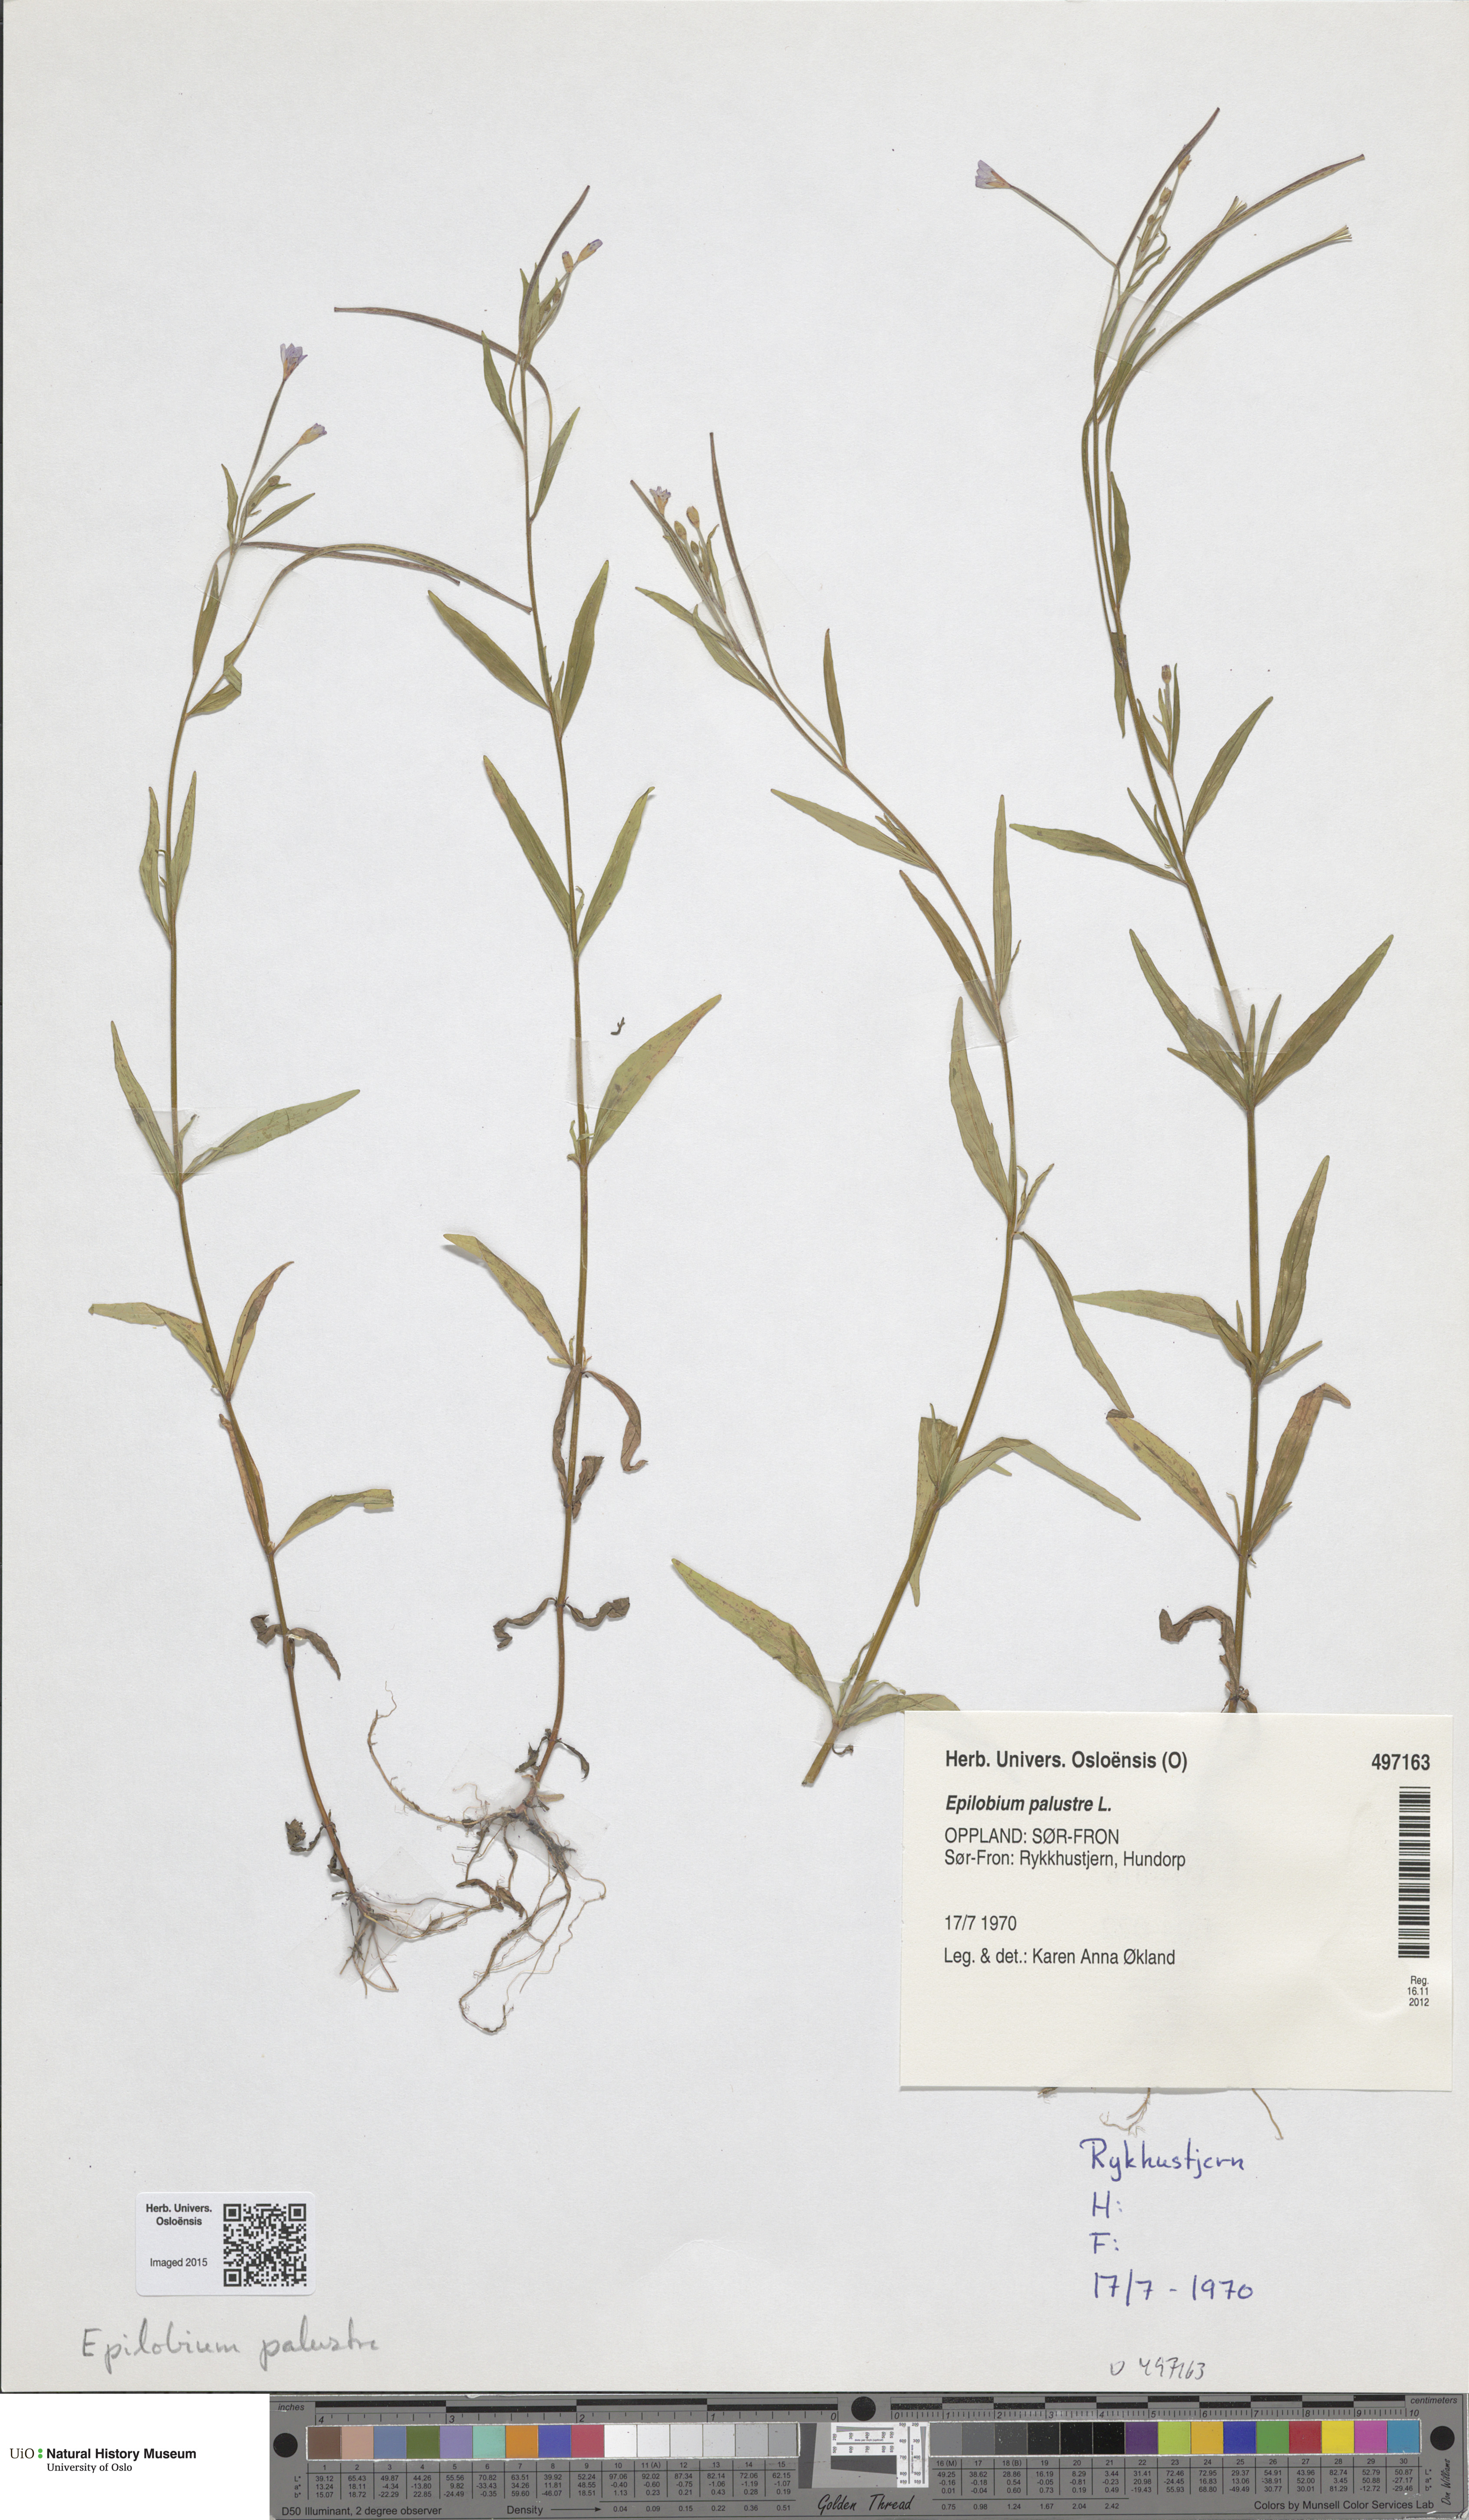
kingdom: Plantae
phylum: Tracheophyta
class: Magnoliopsida
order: Myrtales
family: Onagraceae
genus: Epilobium
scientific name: Epilobium palustre
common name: Marsh willowherb
